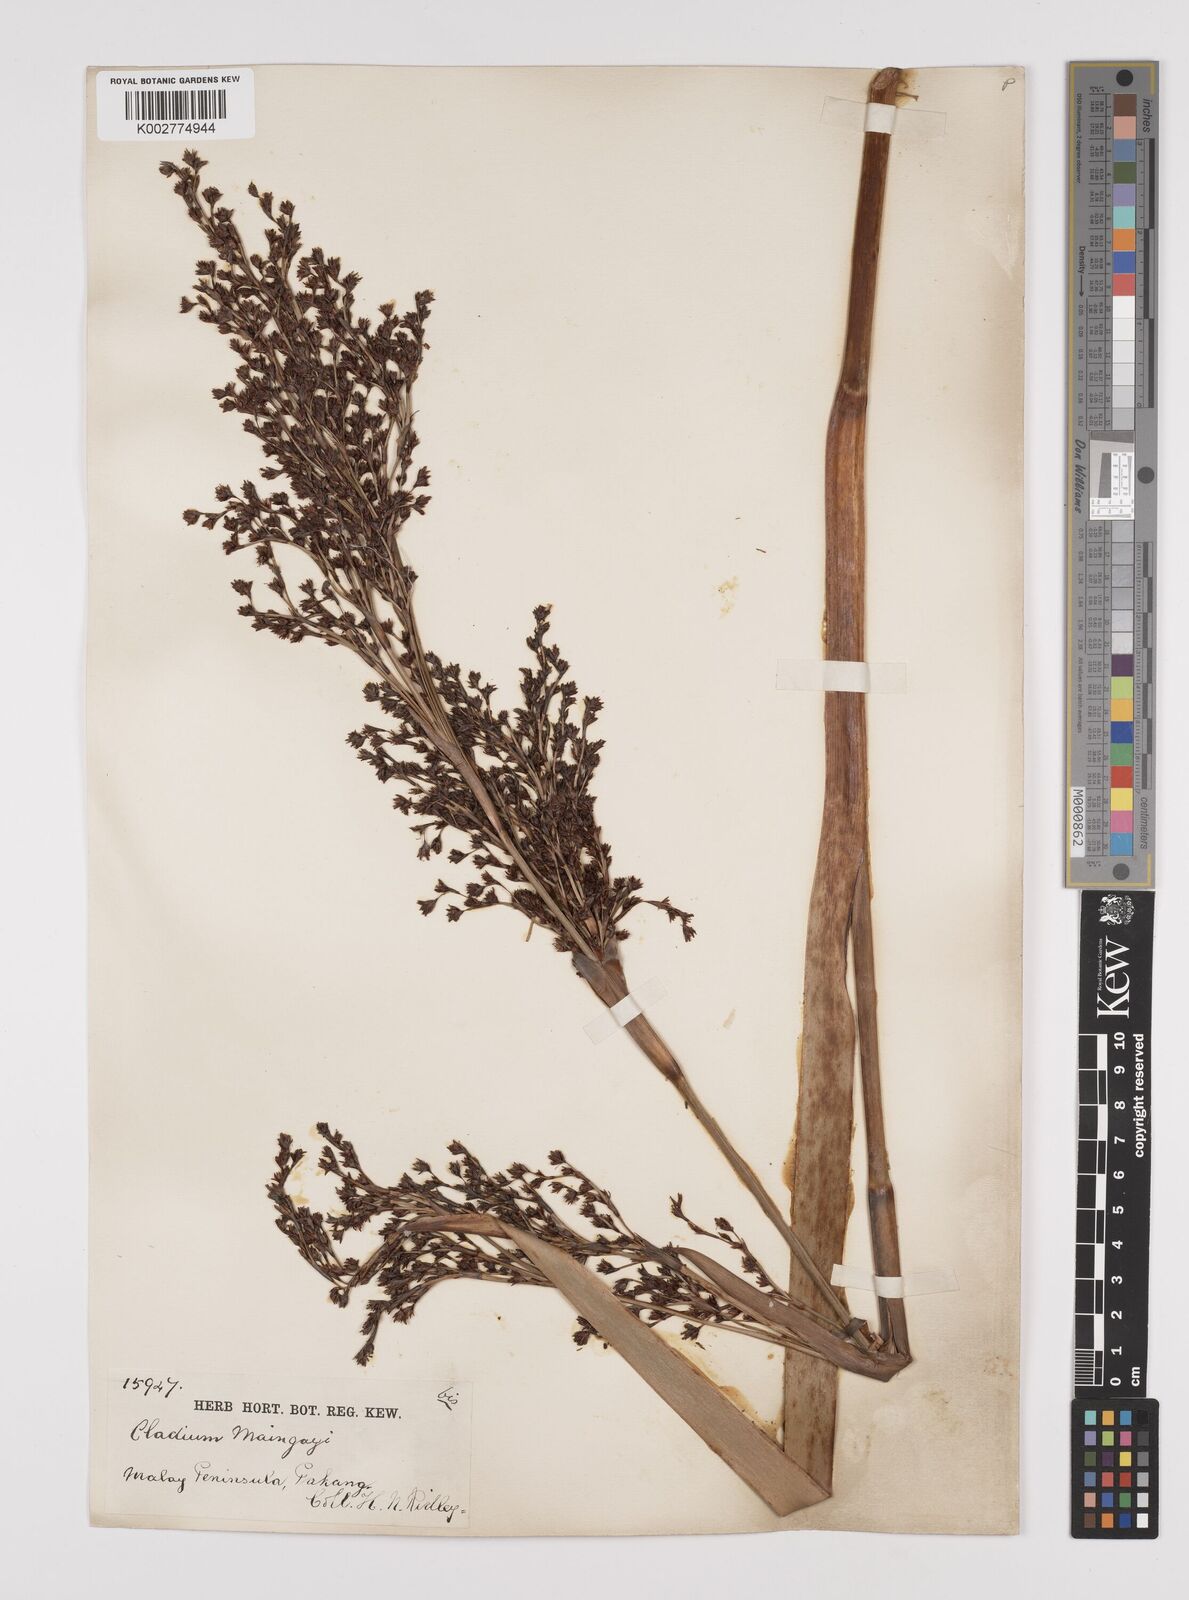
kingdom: Plantae
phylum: Tracheophyta
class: Liliopsida
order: Poales
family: Cyperaceae
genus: Machaerina
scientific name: Machaerina maingayi
